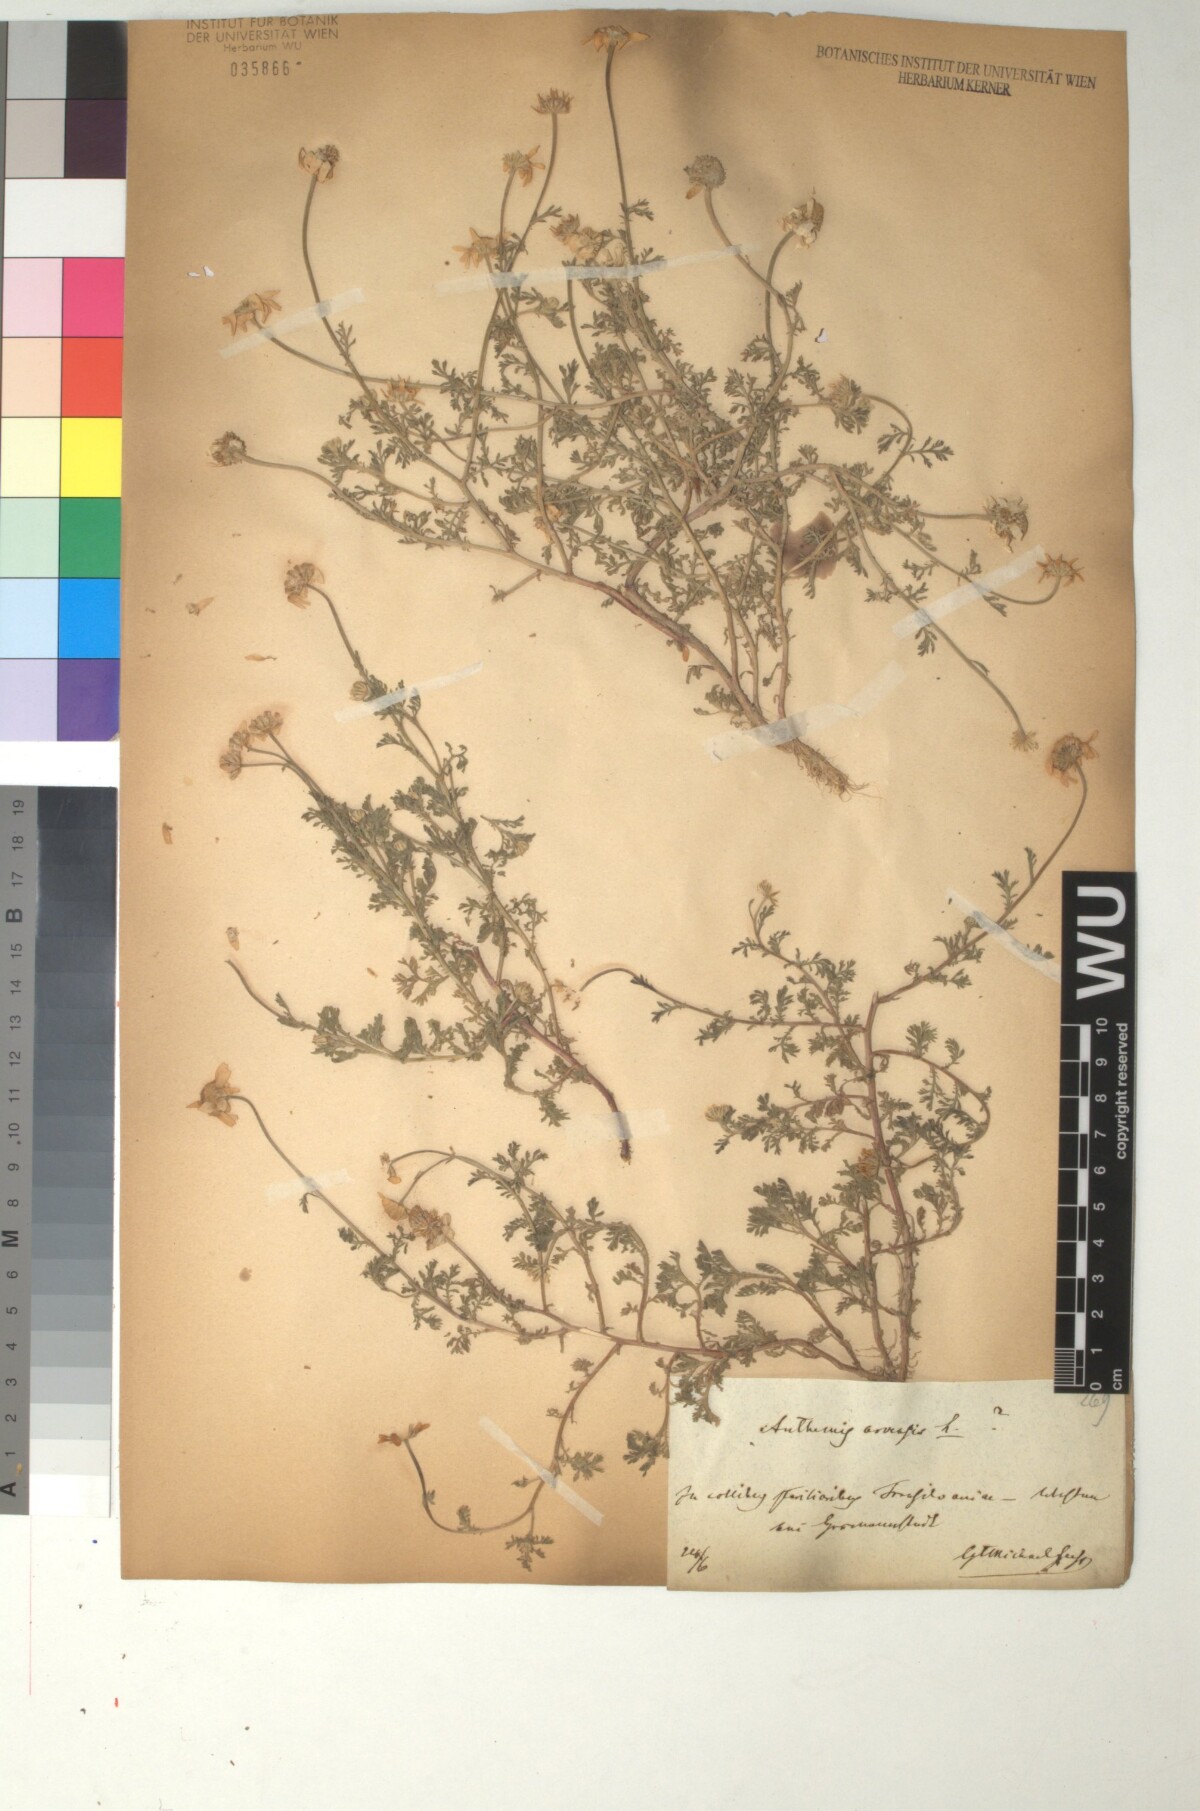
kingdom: Plantae
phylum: Tracheophyta
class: Magnoliopsida
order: Asterales
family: Asteraceae
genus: Anthemis
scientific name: Anthemis arvensis
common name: Corn chamomile
